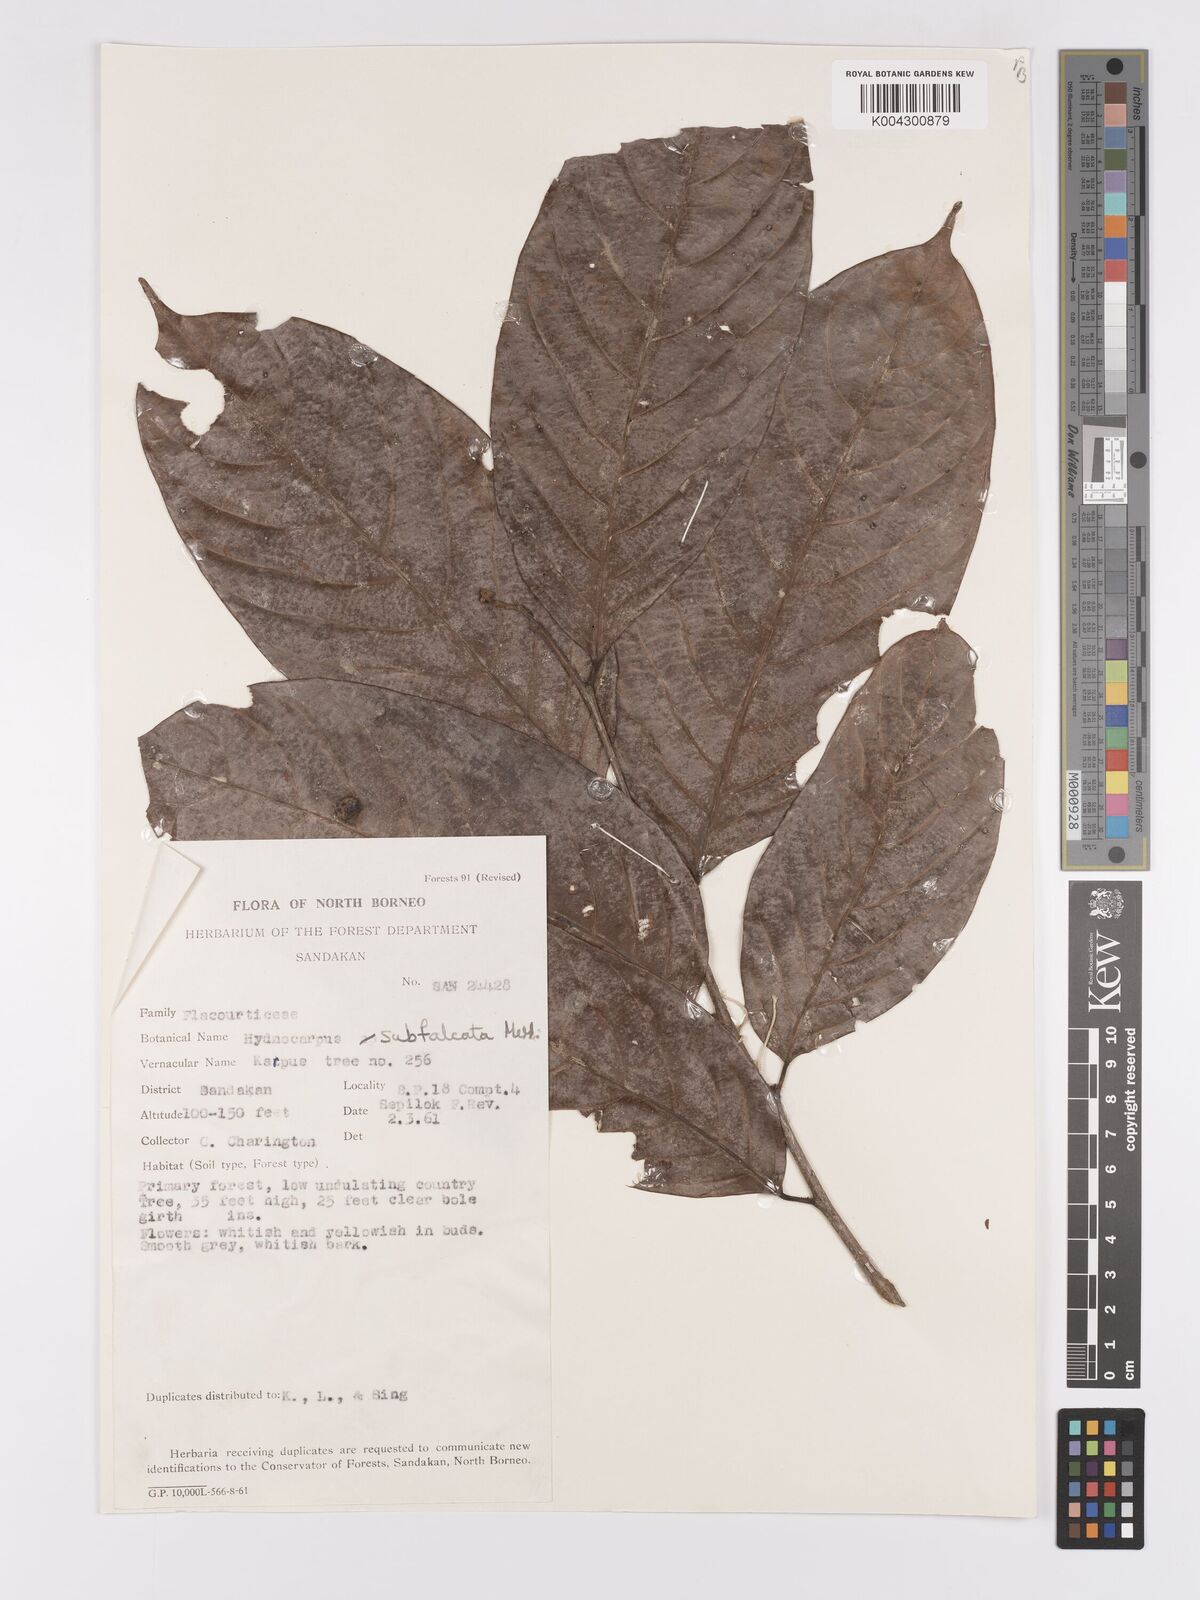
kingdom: Plantae
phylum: Tracheophyta
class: Magnoliopsida
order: Malpighiales
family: Achariaceae
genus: Hydnocarpus
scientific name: Hydnocarpus subfalcatus
